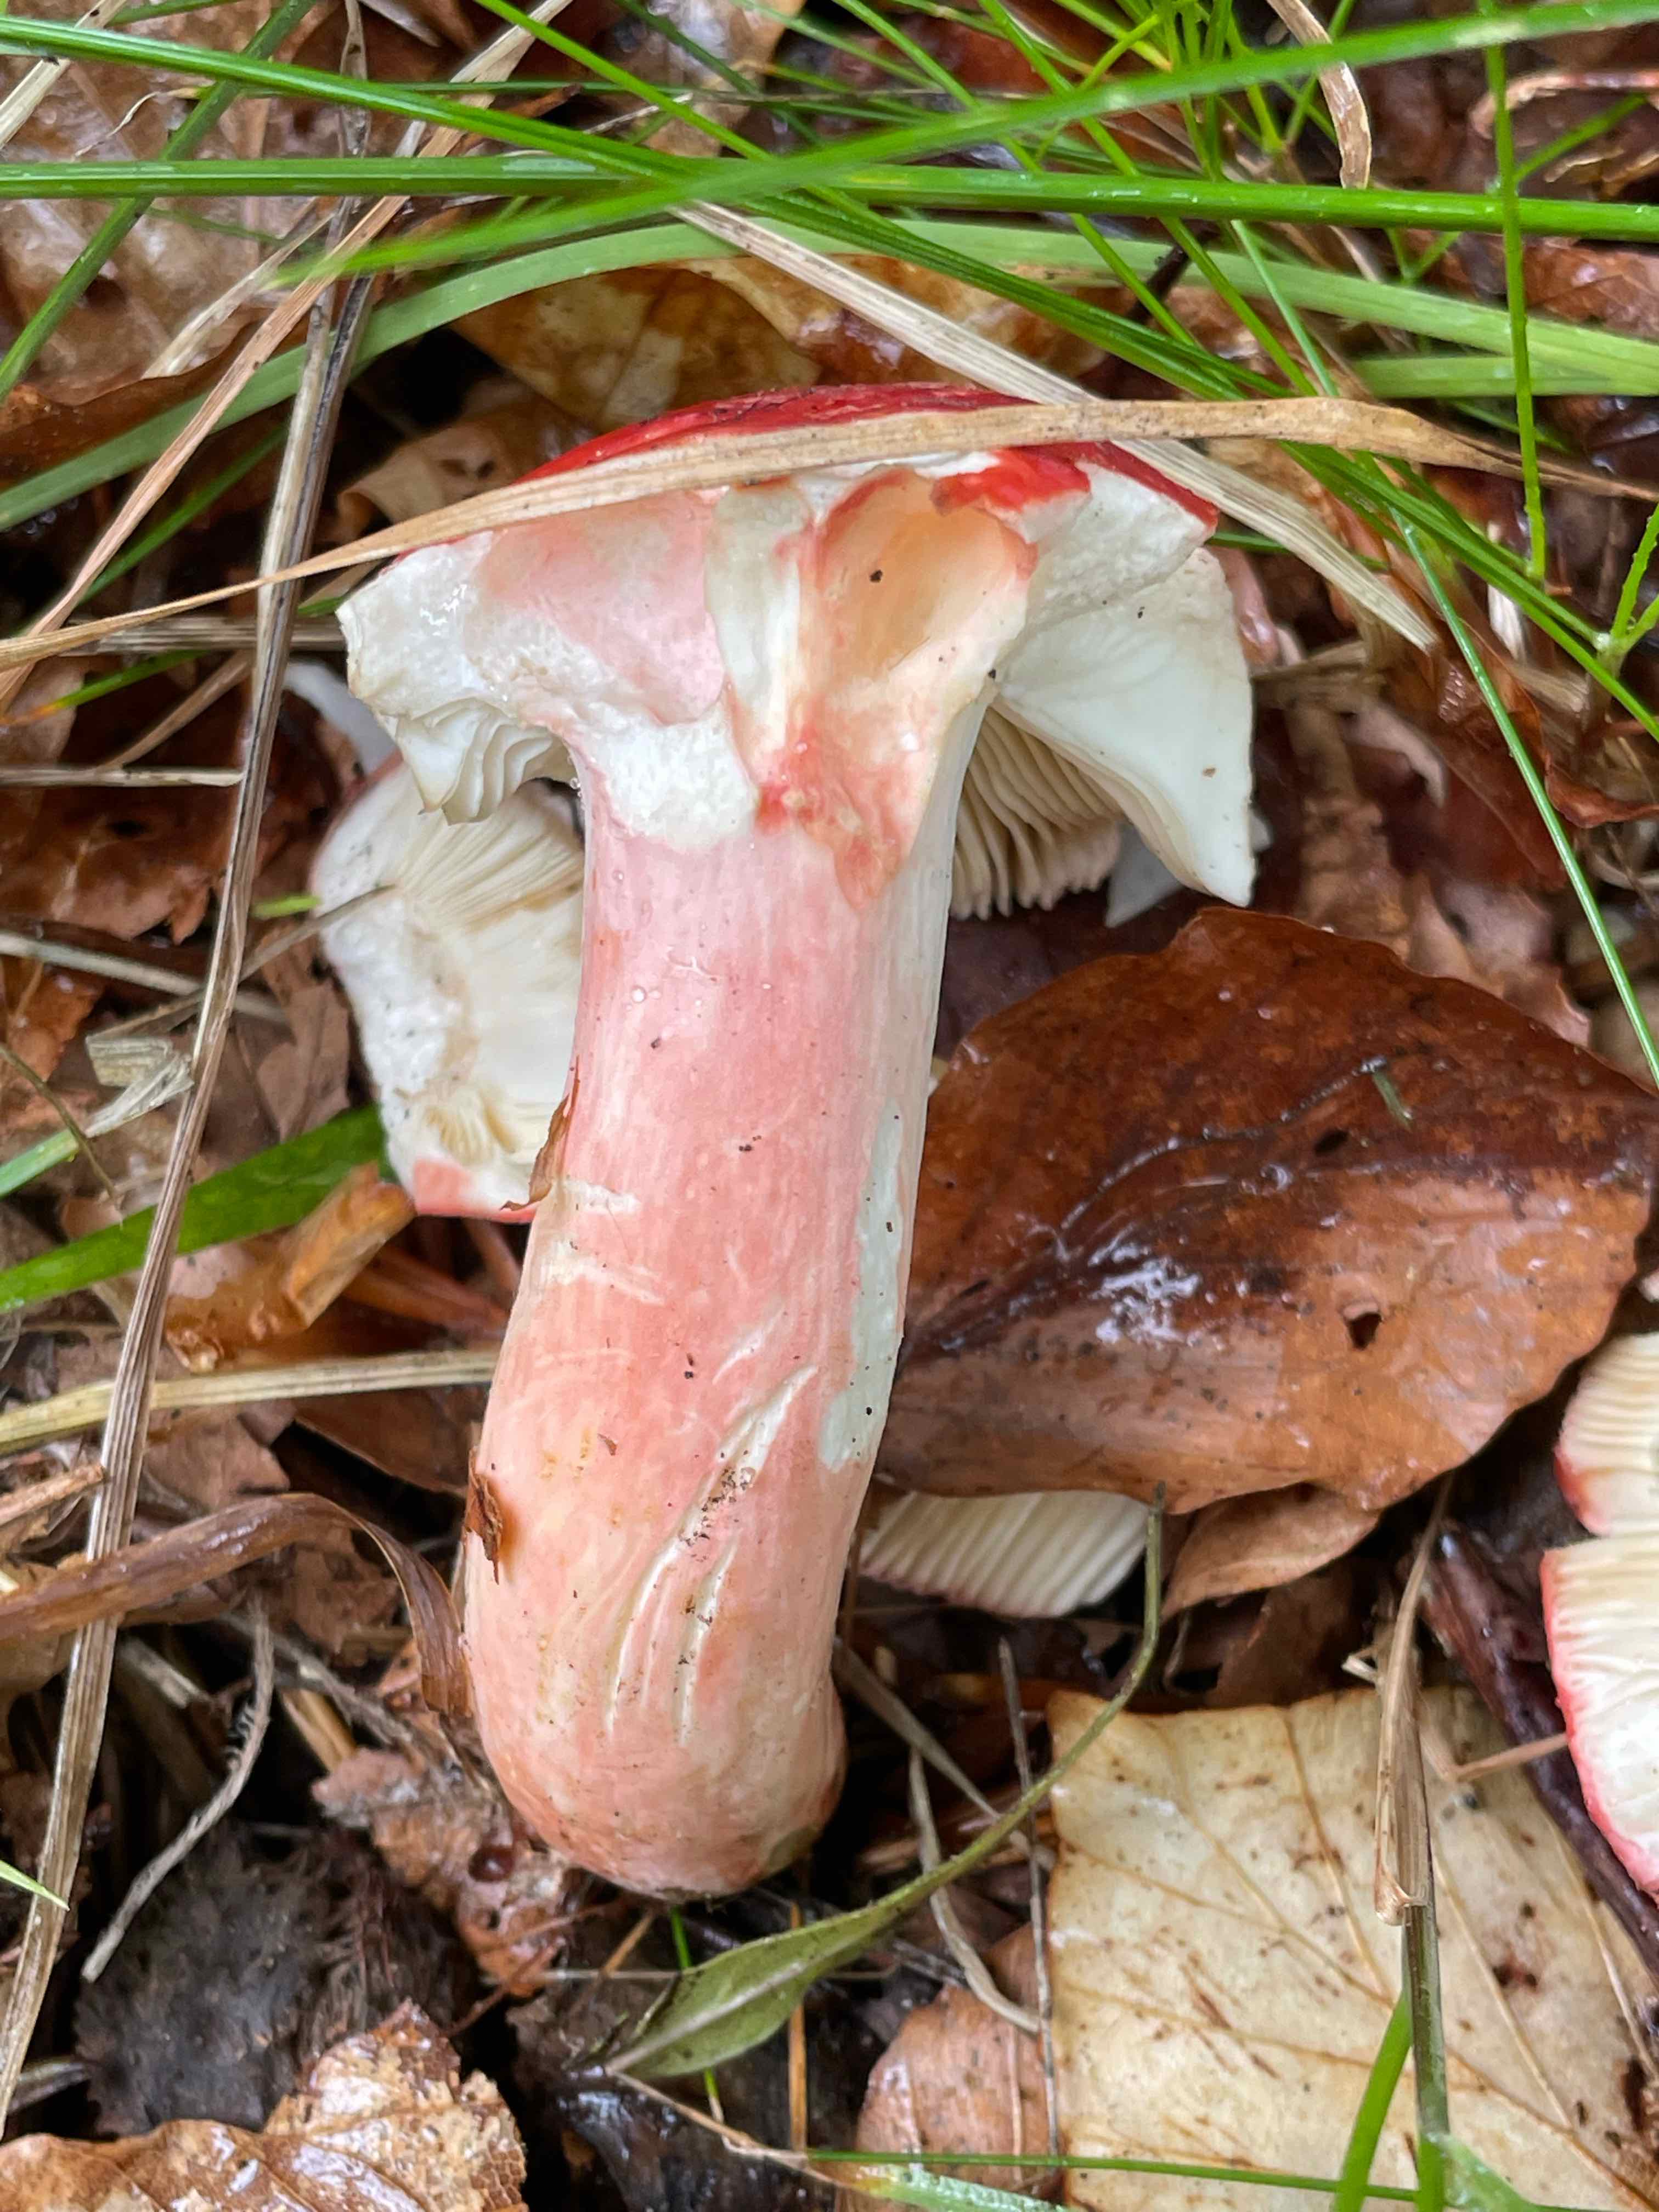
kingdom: Fungi
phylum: Basidiomycota
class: Agaricomycetes
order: Russulales
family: Russulaceae
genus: Russula
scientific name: Russula rosea
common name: fastkødet skørhat
